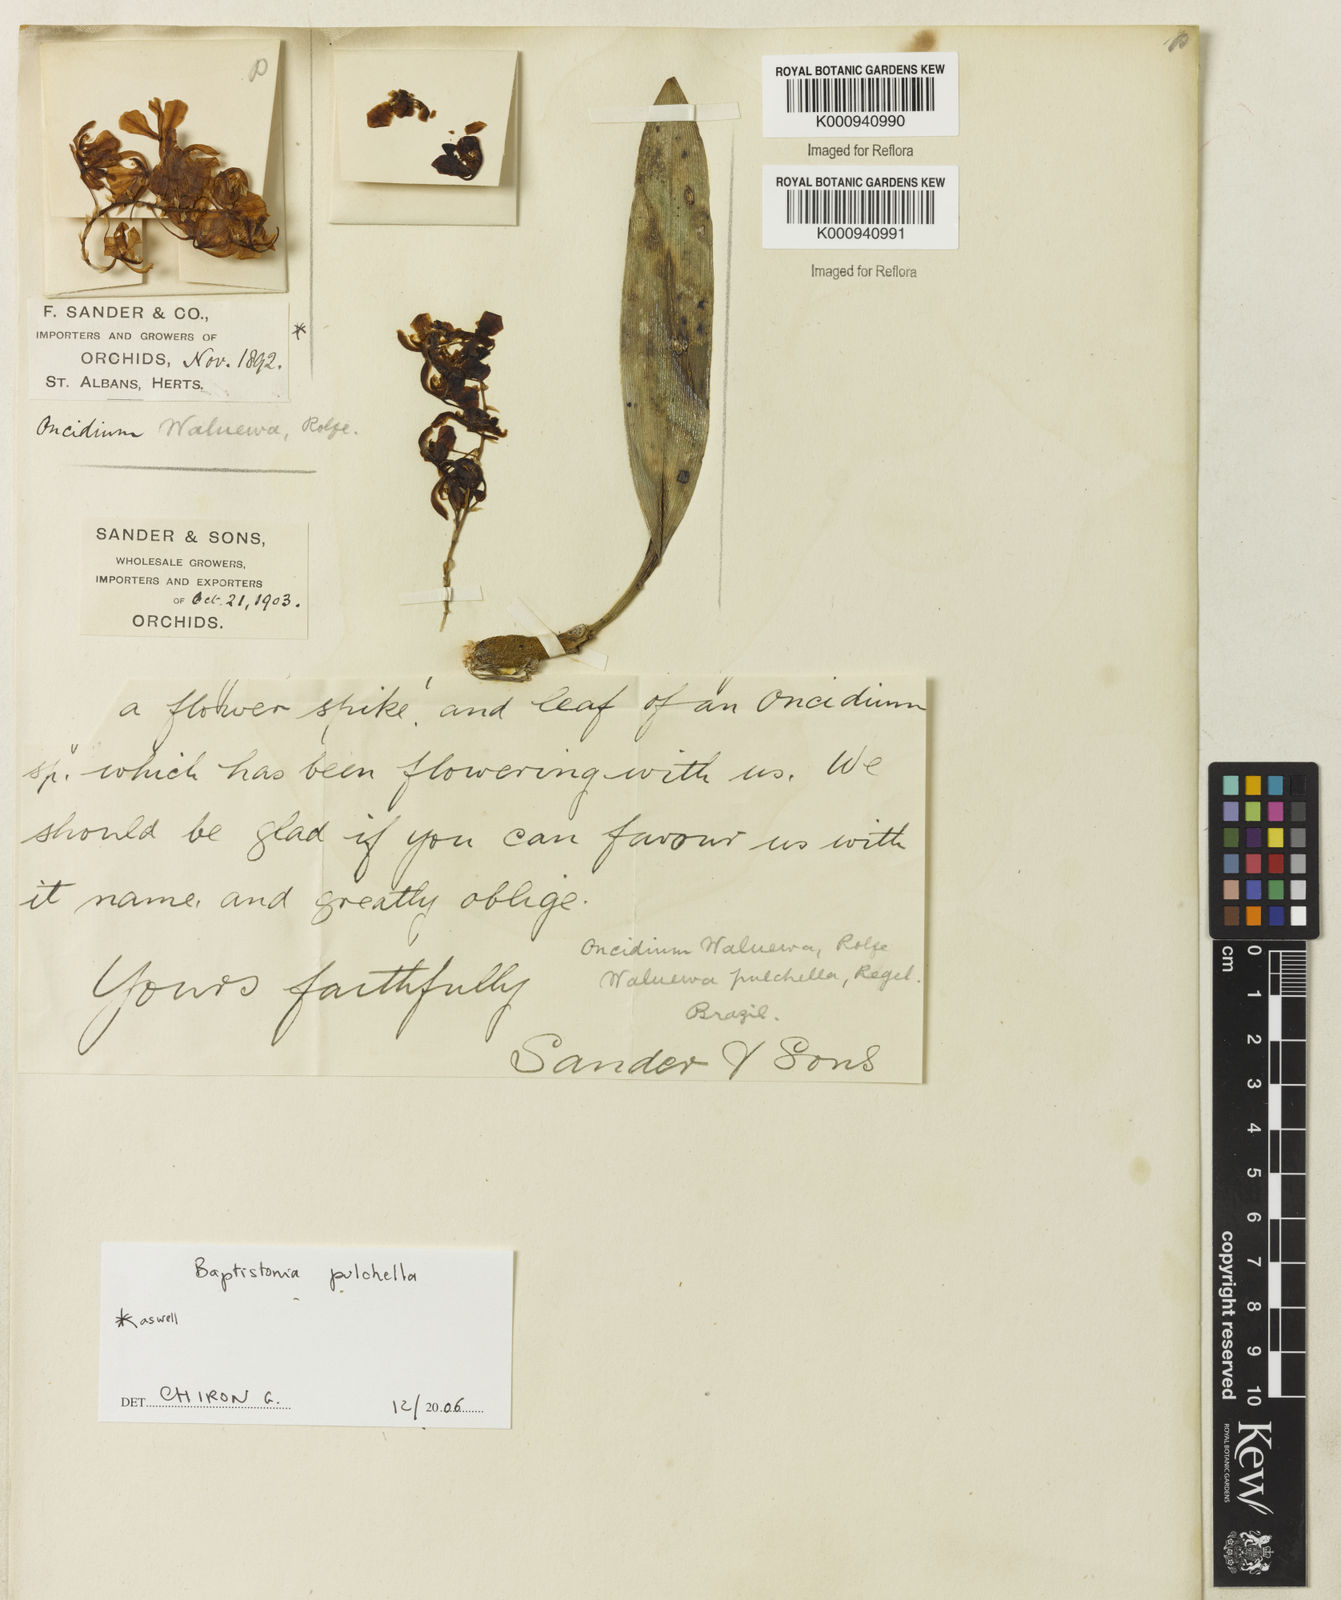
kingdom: Plantae
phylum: Tracheophyta
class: Liliopsida
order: Asparagales
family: Orchidaceae
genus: Gomesa
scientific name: Gomesa pulchella
